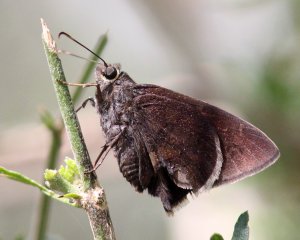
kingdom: Animalia
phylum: Arthropoda
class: Insecta
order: Lepidoptera
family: Hesperiidae
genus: Achalarus
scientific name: Achalarus toxeus
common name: Coyote Cloudywing
